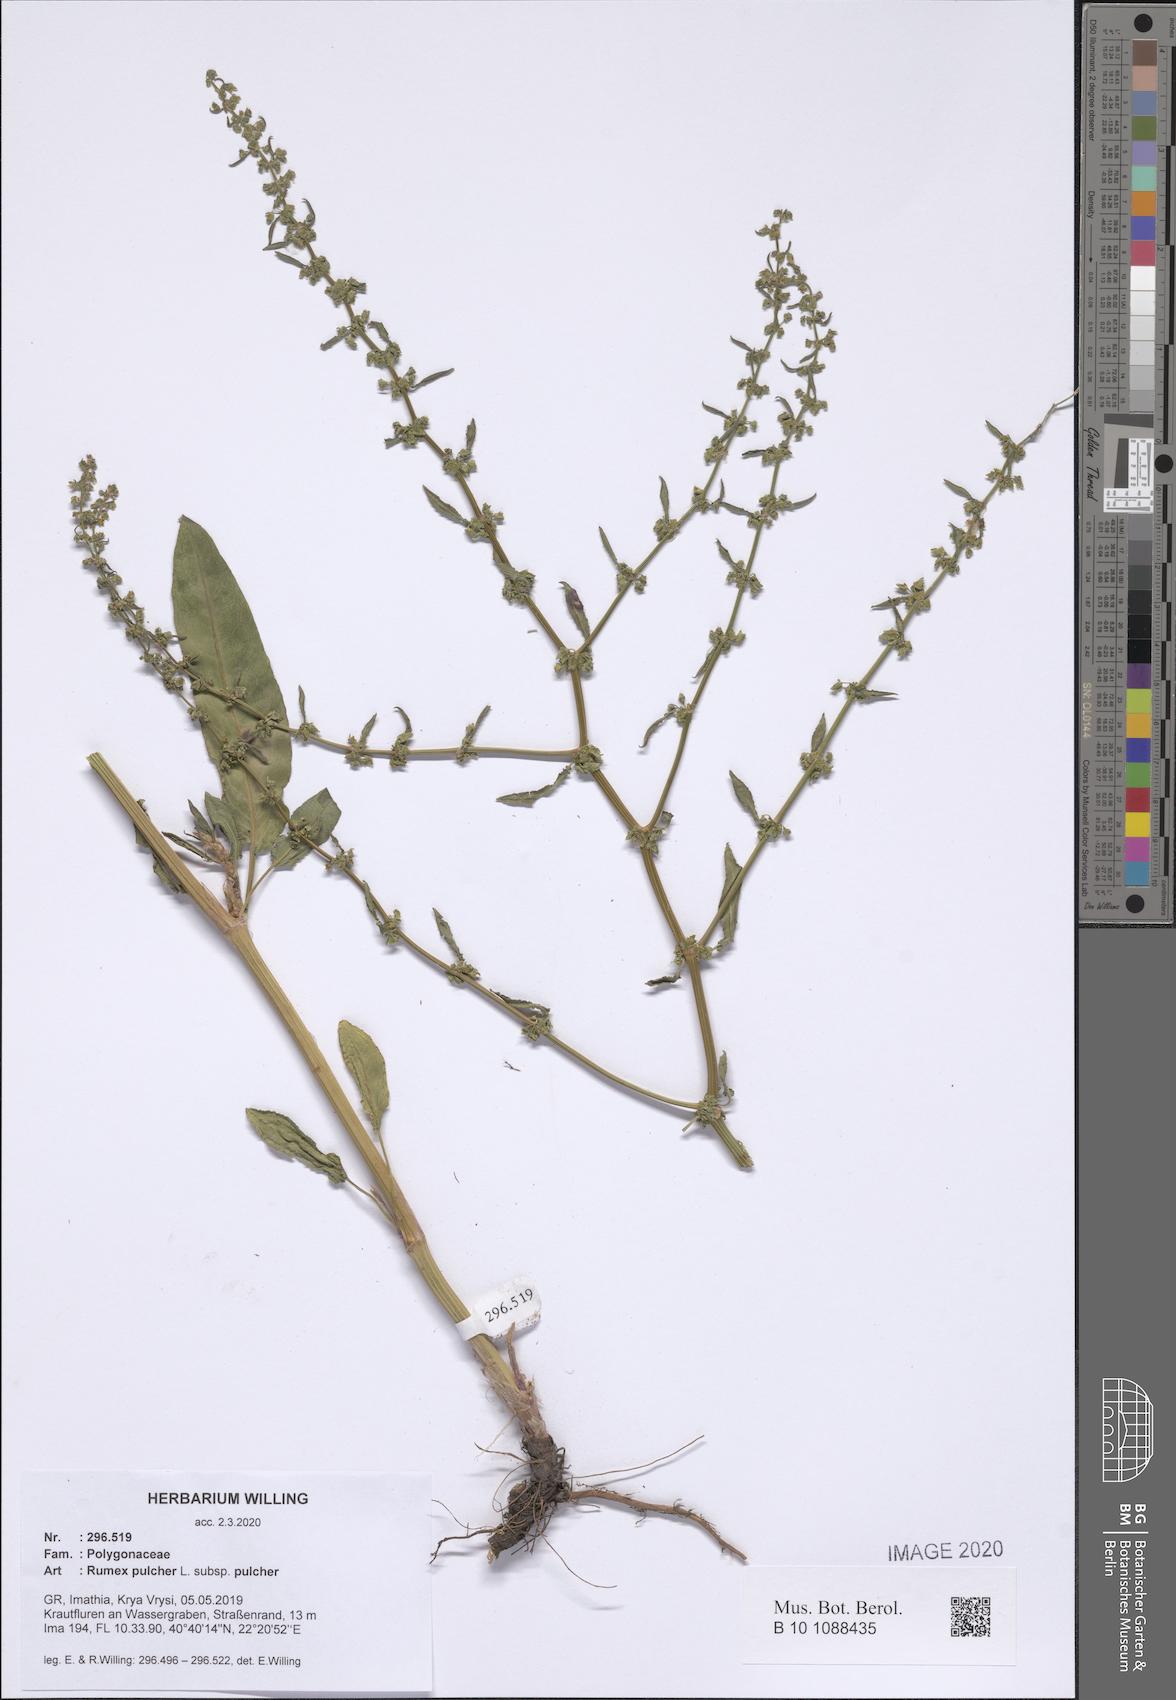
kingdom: Plantae
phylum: Tracheophyta
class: Magnoliopsida
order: Caryophyllales
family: Polygonaceae
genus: Rumex
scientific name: Rumex pulcher
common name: Fiddle dock
